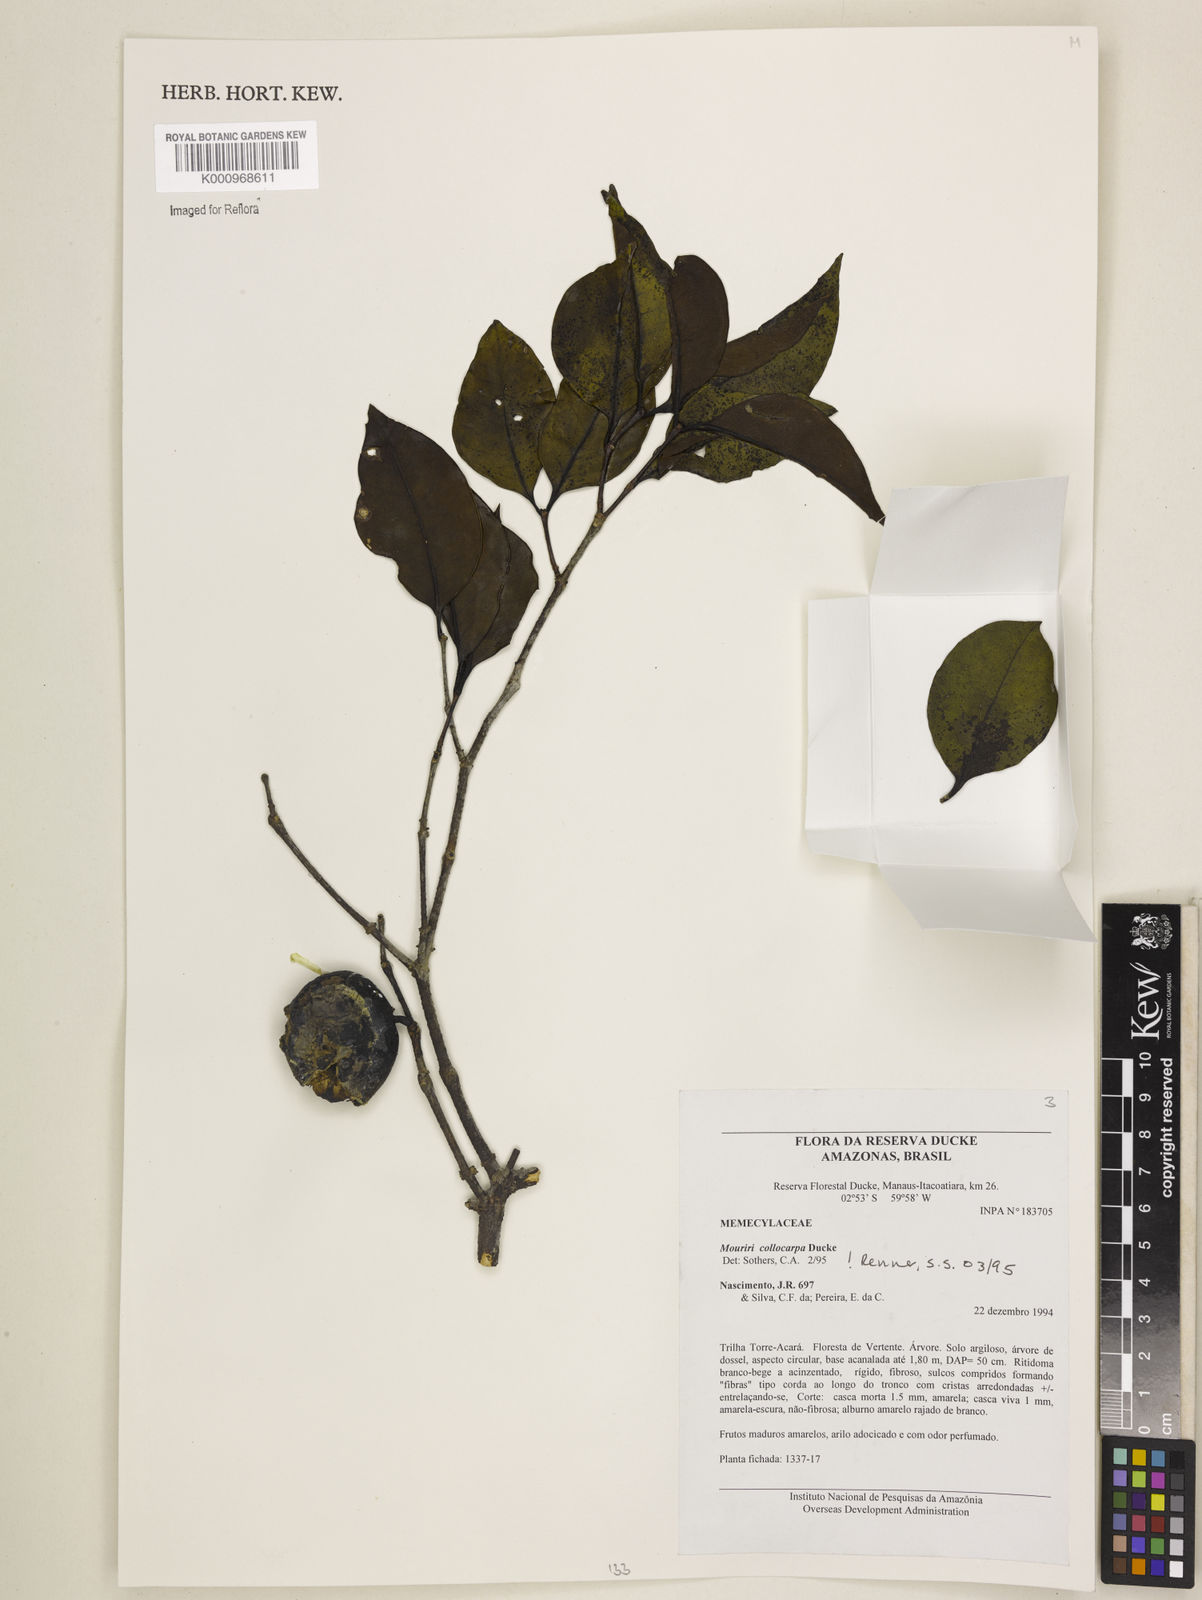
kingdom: Plantae
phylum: Tracheophyta
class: Magnoliopsida
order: Myrtales
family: Melastomataceae
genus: Mouriri
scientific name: Mouriri collocarpa
